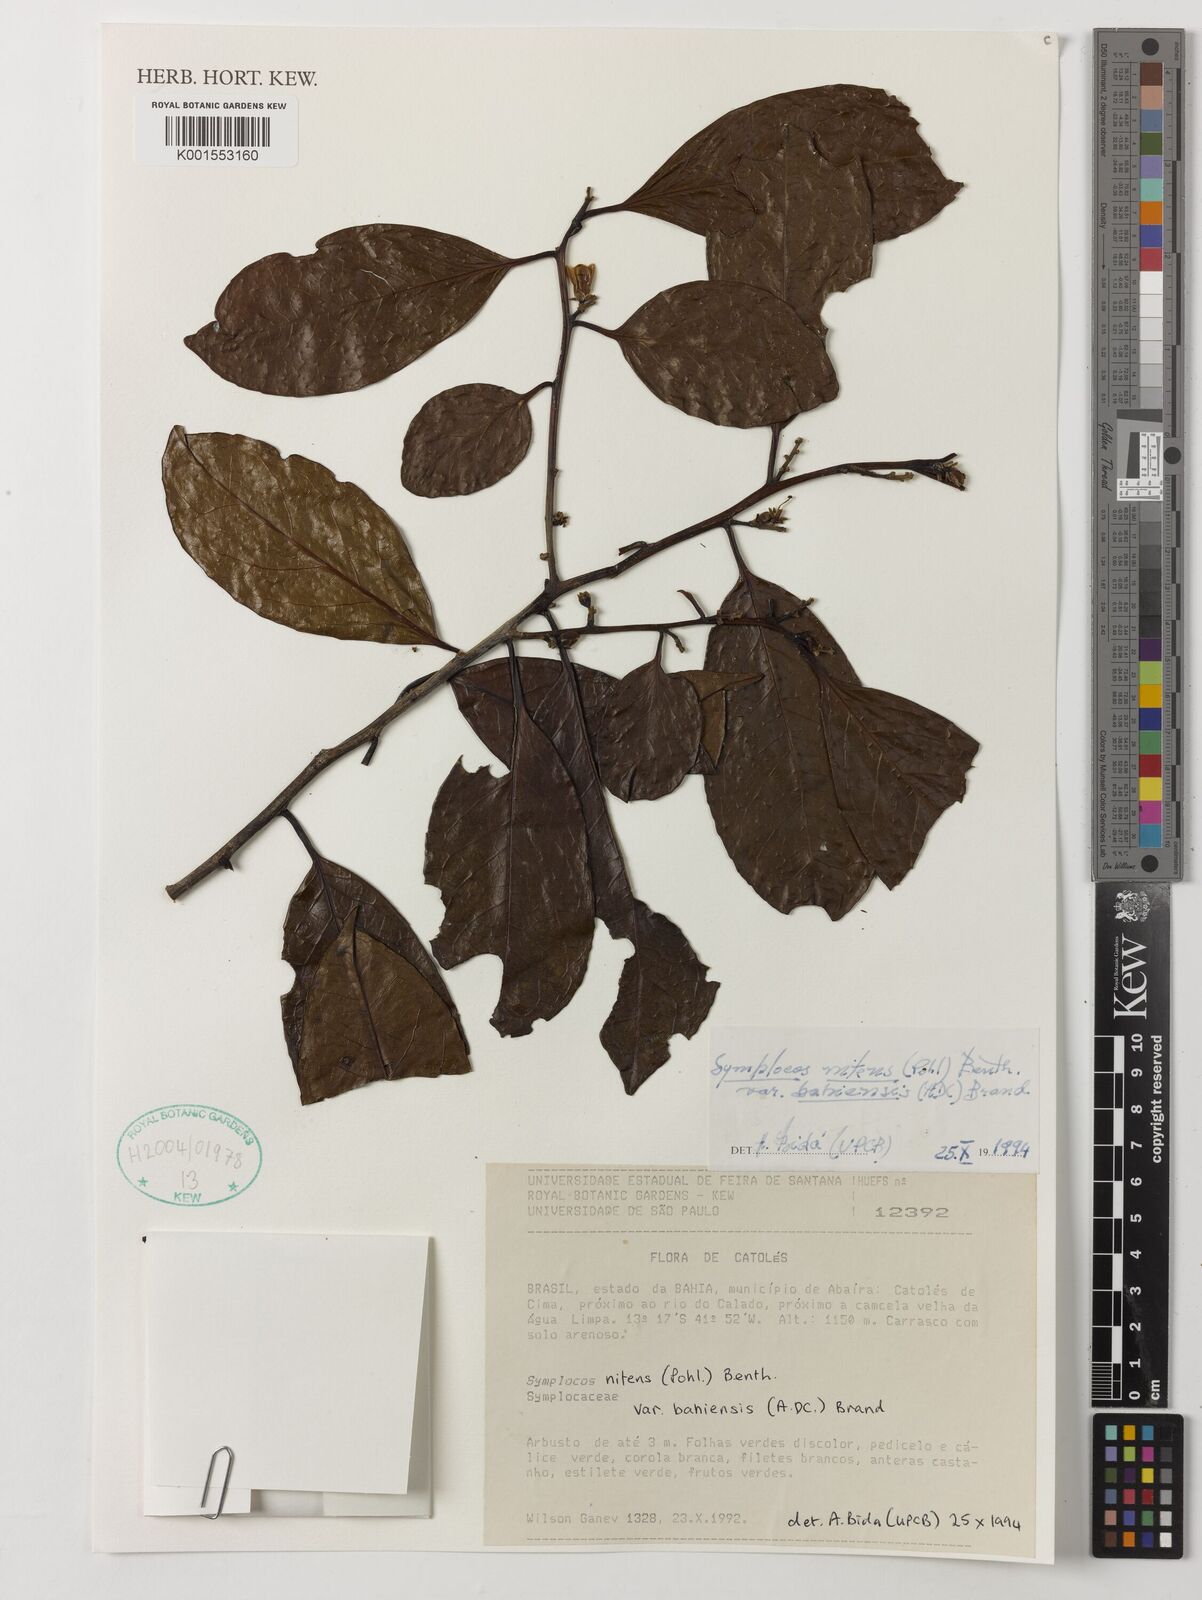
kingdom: Plantae
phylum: Tracheophyta
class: Magnoliopsida
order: Ericales
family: Symplocaceae
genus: Symplocos
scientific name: Symplocos nitens
